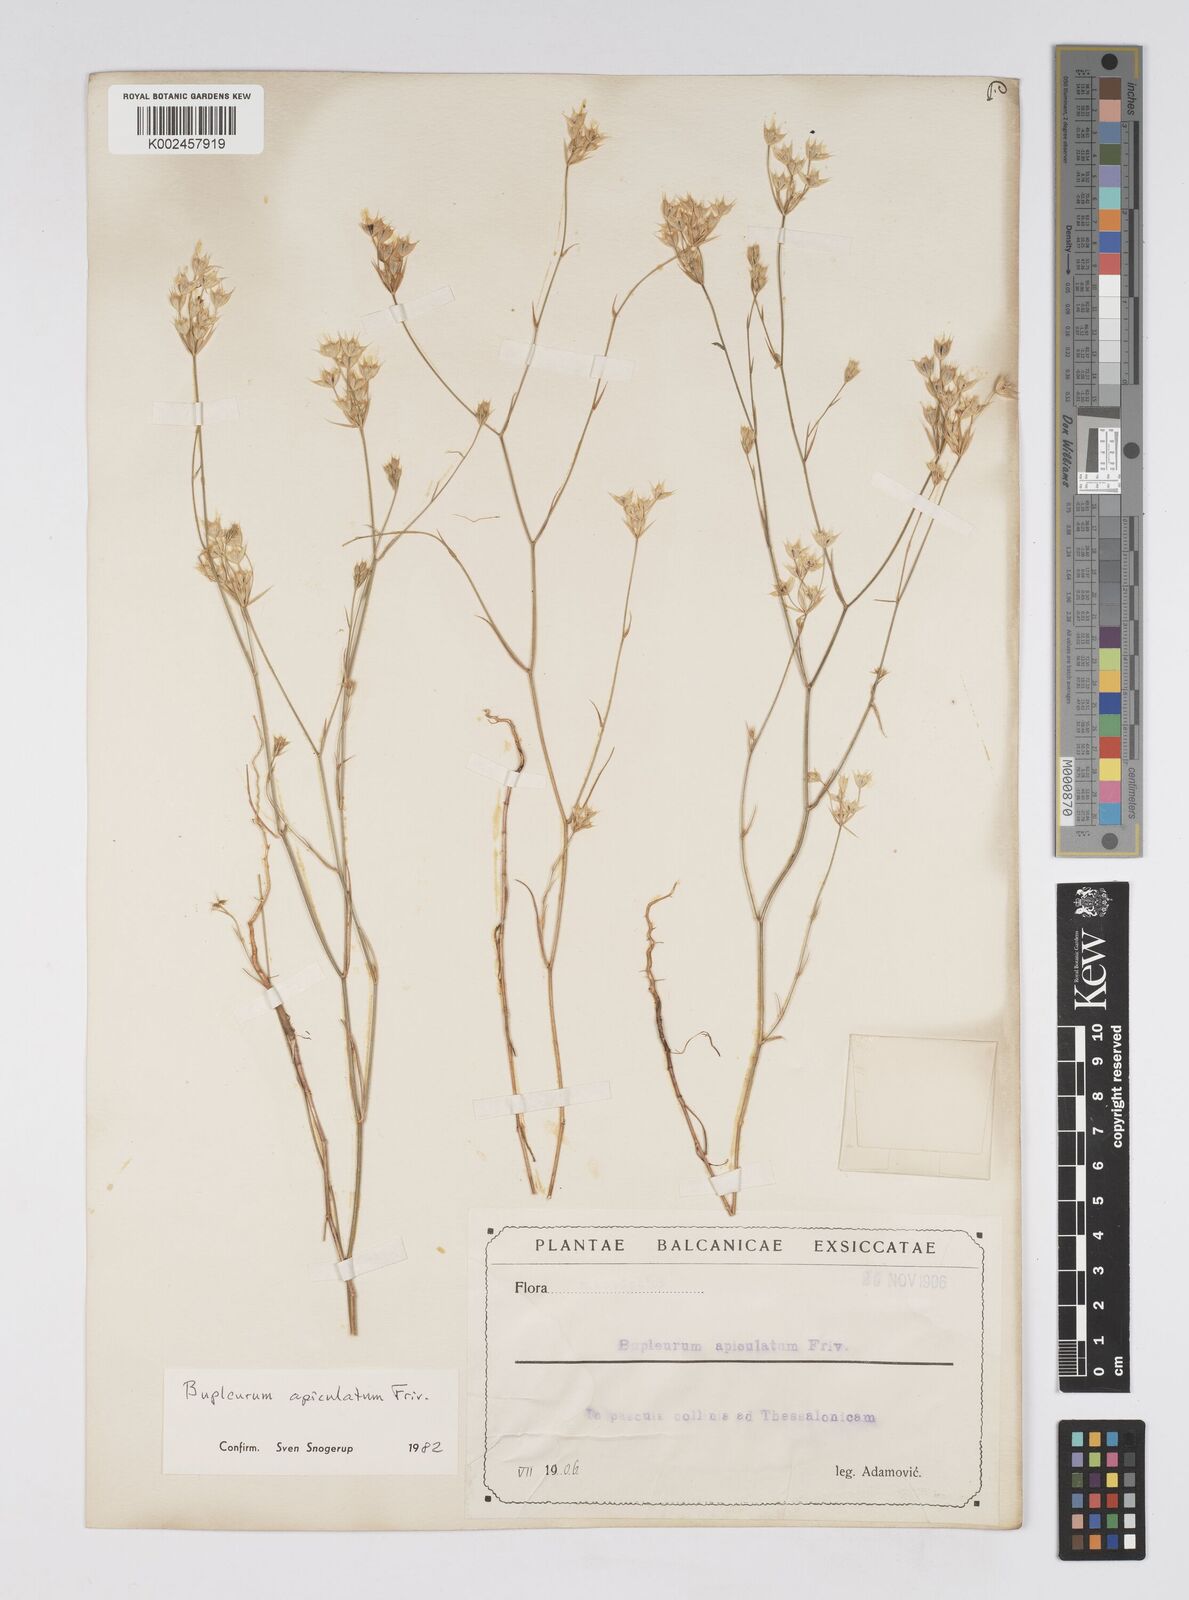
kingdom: Plantae
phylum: Tracheophyta
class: Magnoliopsida
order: Apiales
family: Apiaceae
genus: Bupleurum
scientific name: Bupleurum apiculatum
